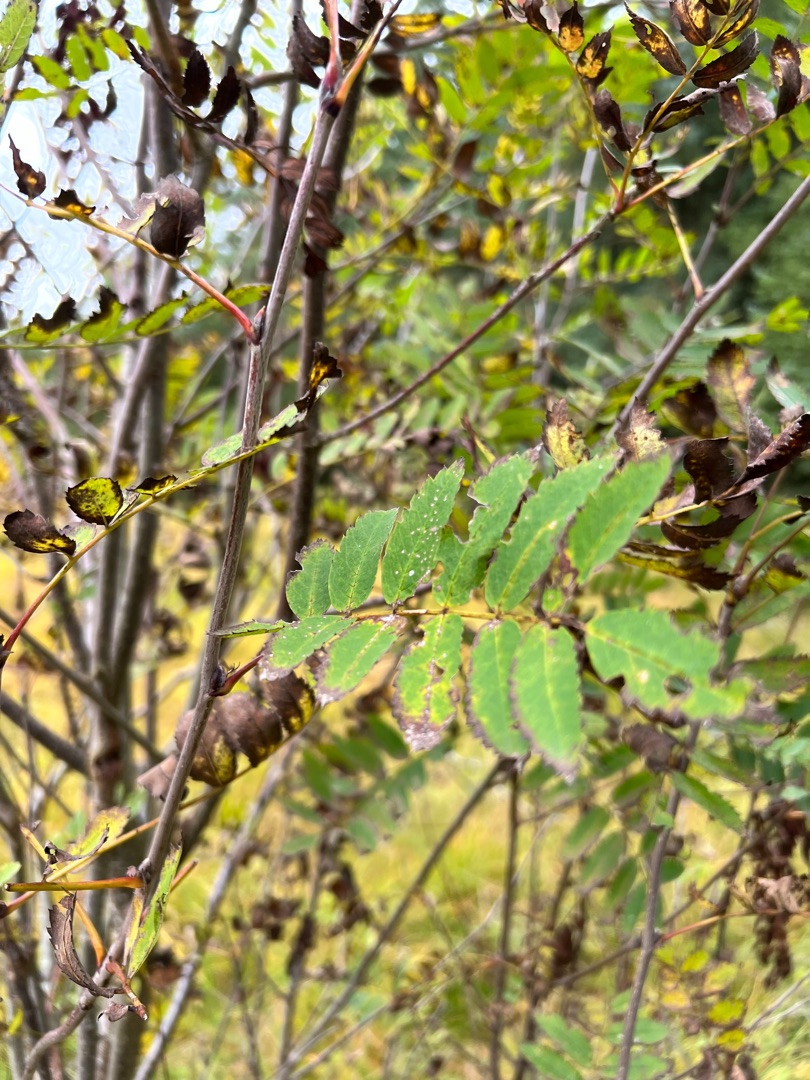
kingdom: Plantae
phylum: Tracheophyta
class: Magnoliopsida
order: Rosales
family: Rosaceae
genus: Sorbus
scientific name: Sorbus aucuparia
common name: Almindelig røn
